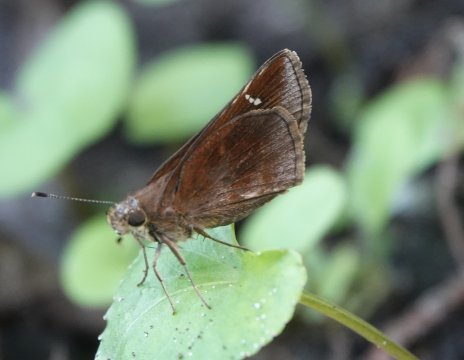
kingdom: Animalia
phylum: Arthropoda
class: Insecta
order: Lepidoptera
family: Hesperiidae
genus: Lerema
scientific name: Lerema accius
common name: Clouded Skipper
